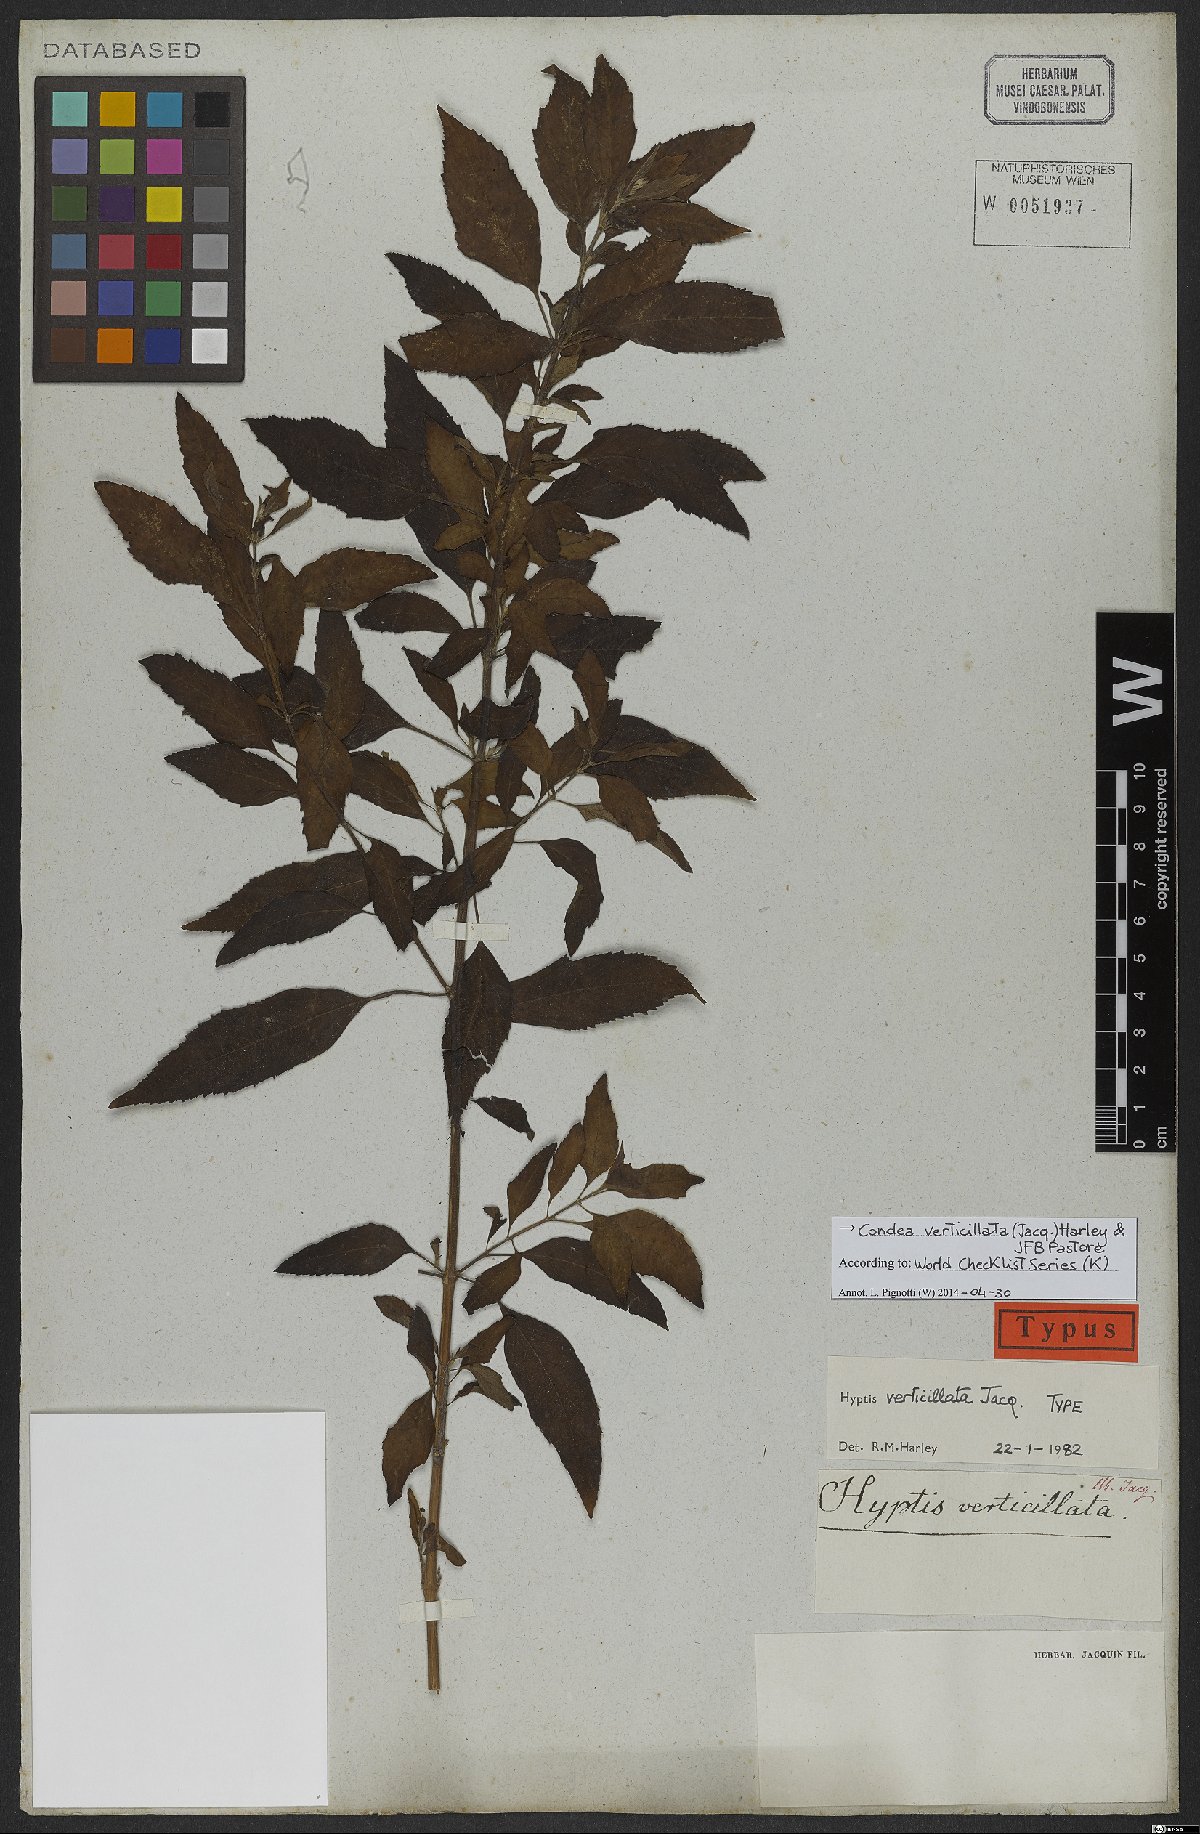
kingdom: Plantae
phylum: Tracheophyta
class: Magnoliopsida
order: Lamiales
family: Lamiaceae
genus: Condea
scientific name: Condea verticillata
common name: John charles
